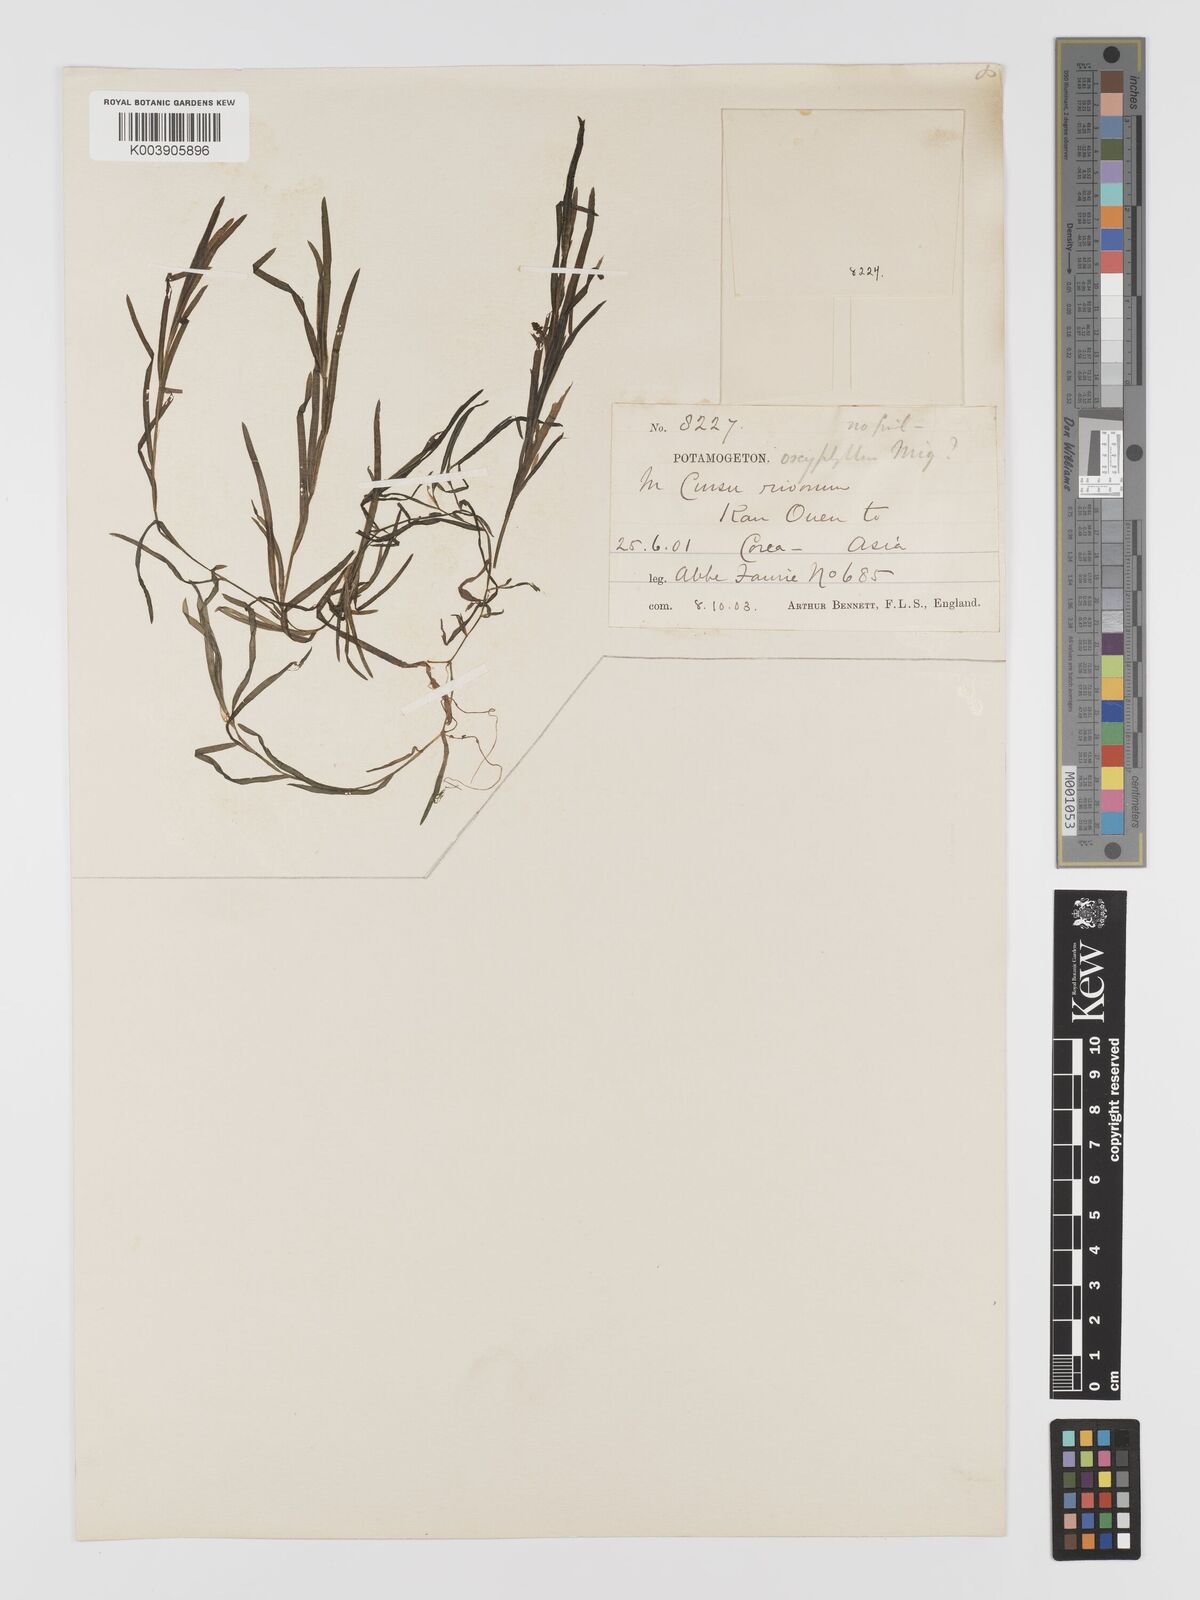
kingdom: Plantae
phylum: Tracheophyta
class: Liliopsida
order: Alismatales
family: Potamogetonaceae
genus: Potamogeton
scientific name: Potamogeton oxyphyllus
